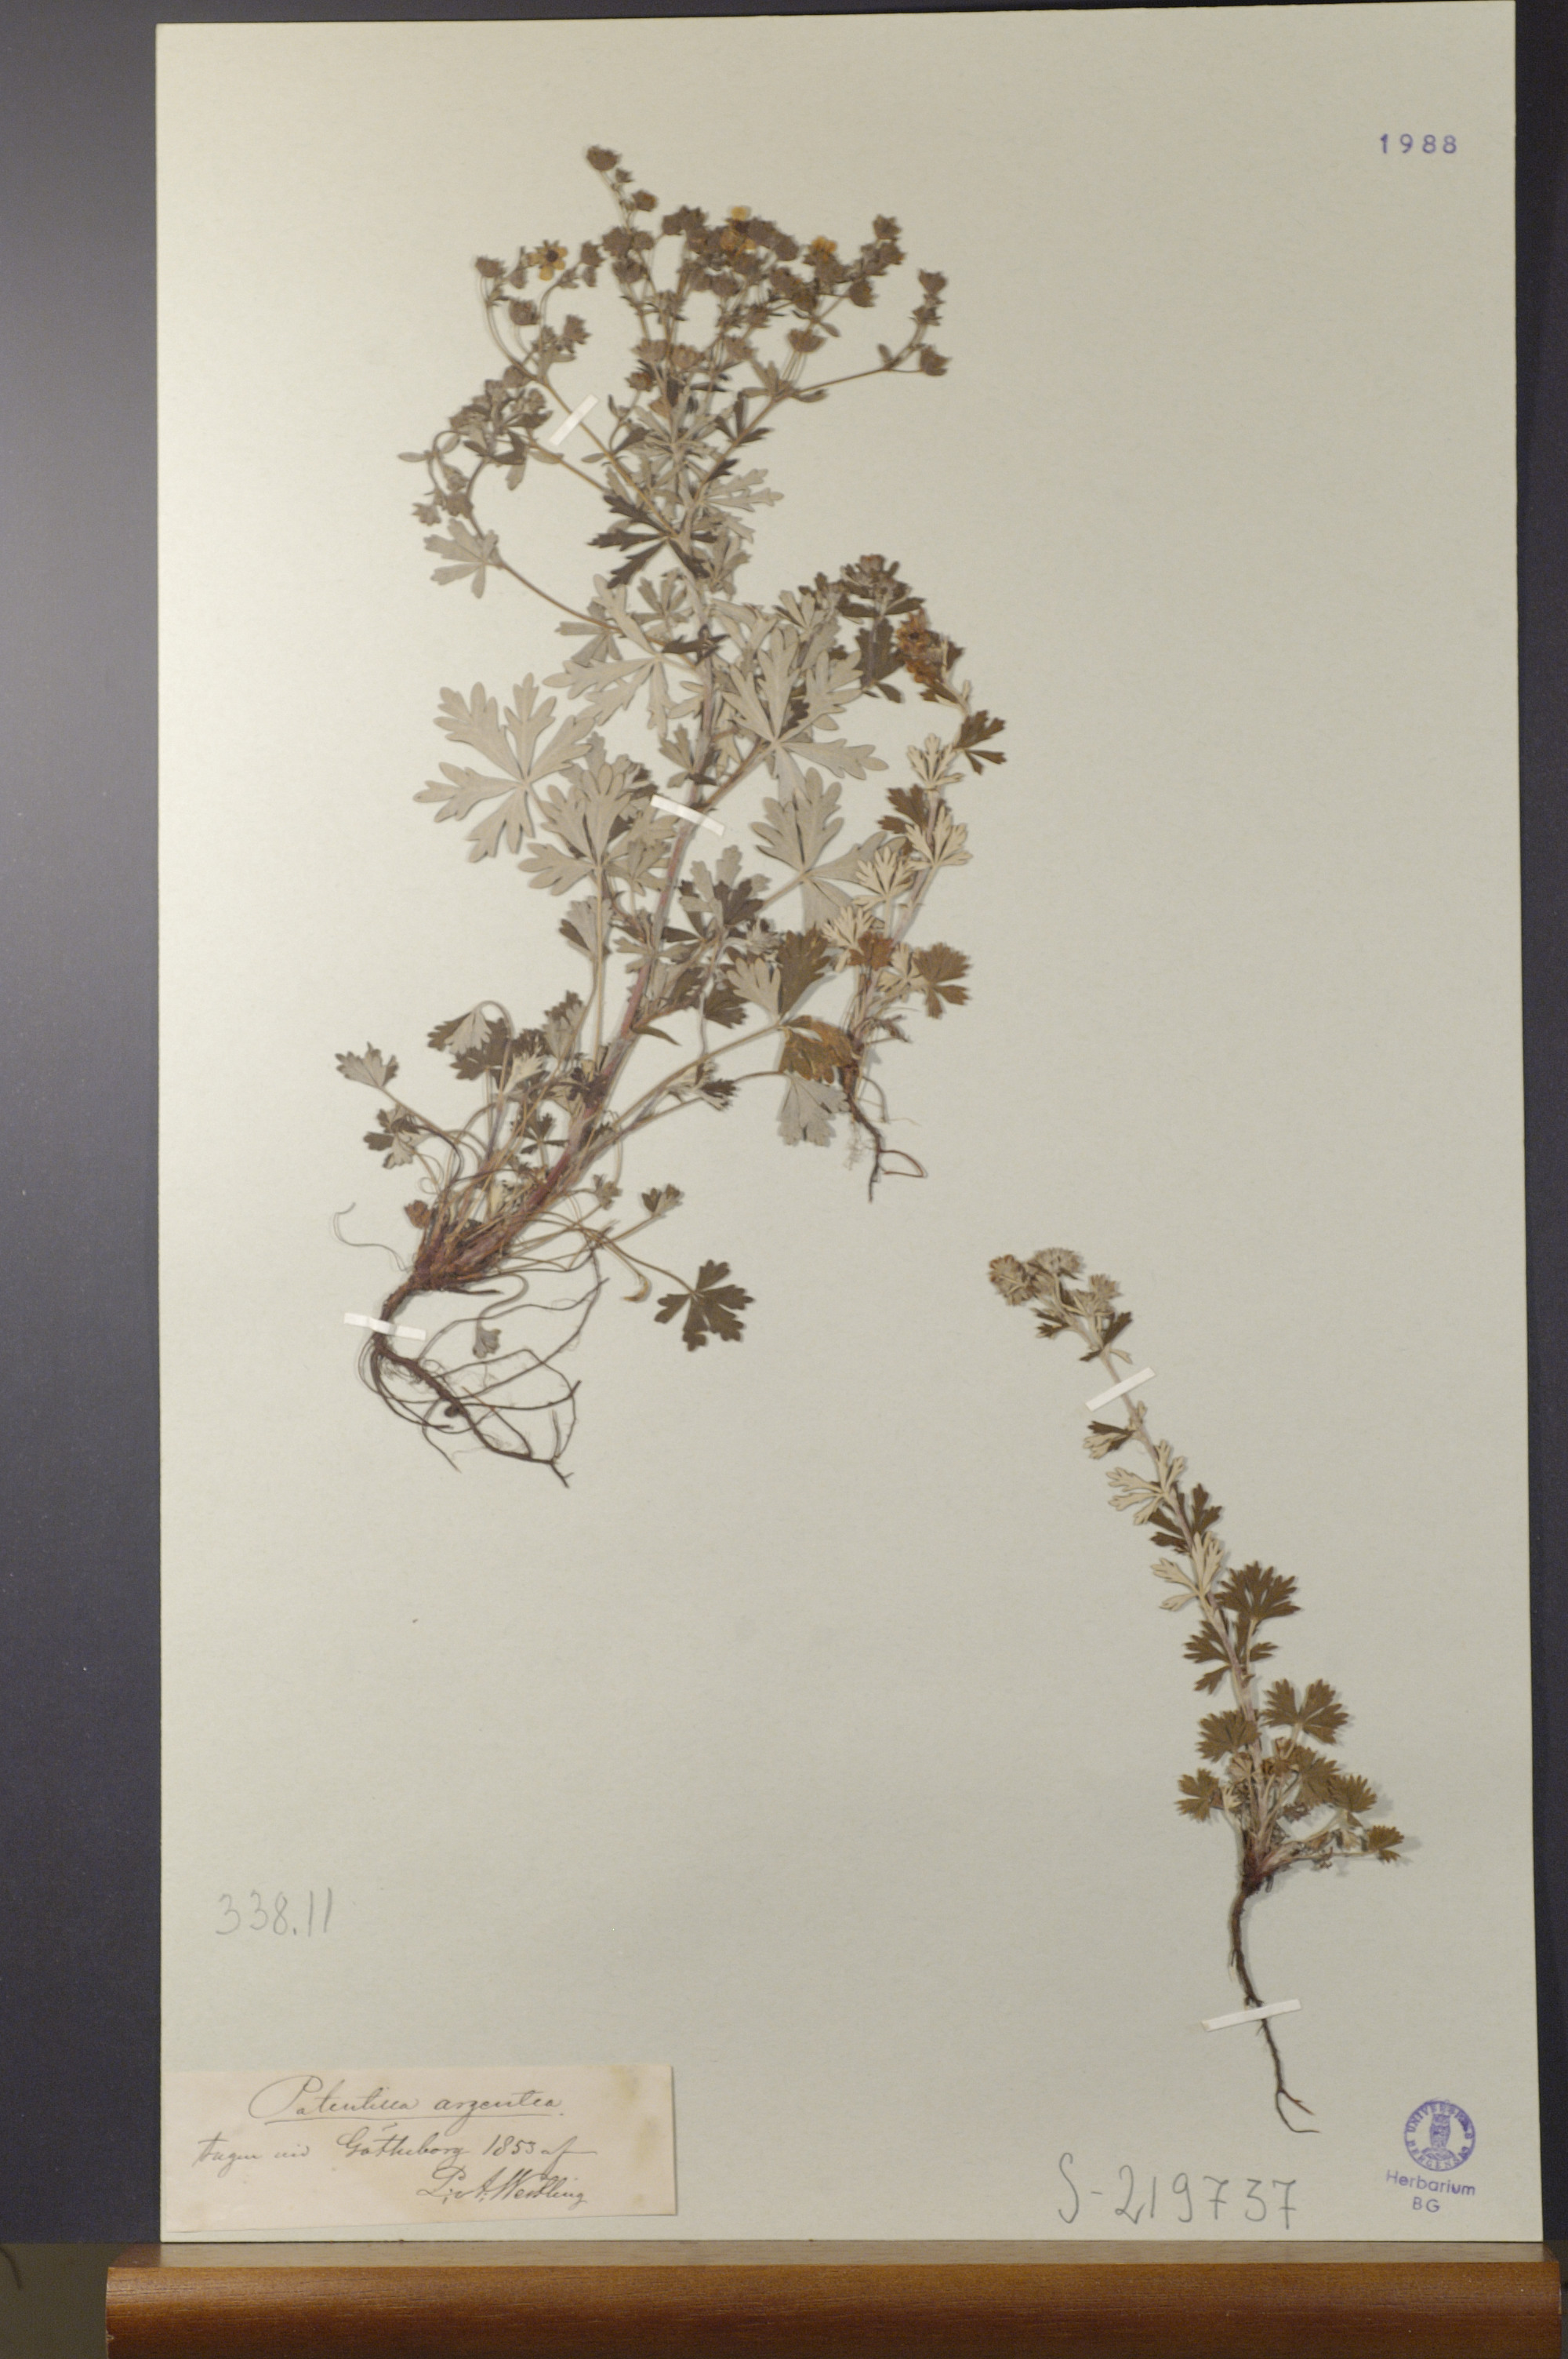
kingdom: Plantae
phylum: Tracheophyta
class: Magnoliopsida
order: Rosales
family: Rosaceae
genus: Potentilla
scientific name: Potentilla argentea
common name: Hoary cinquefoil
